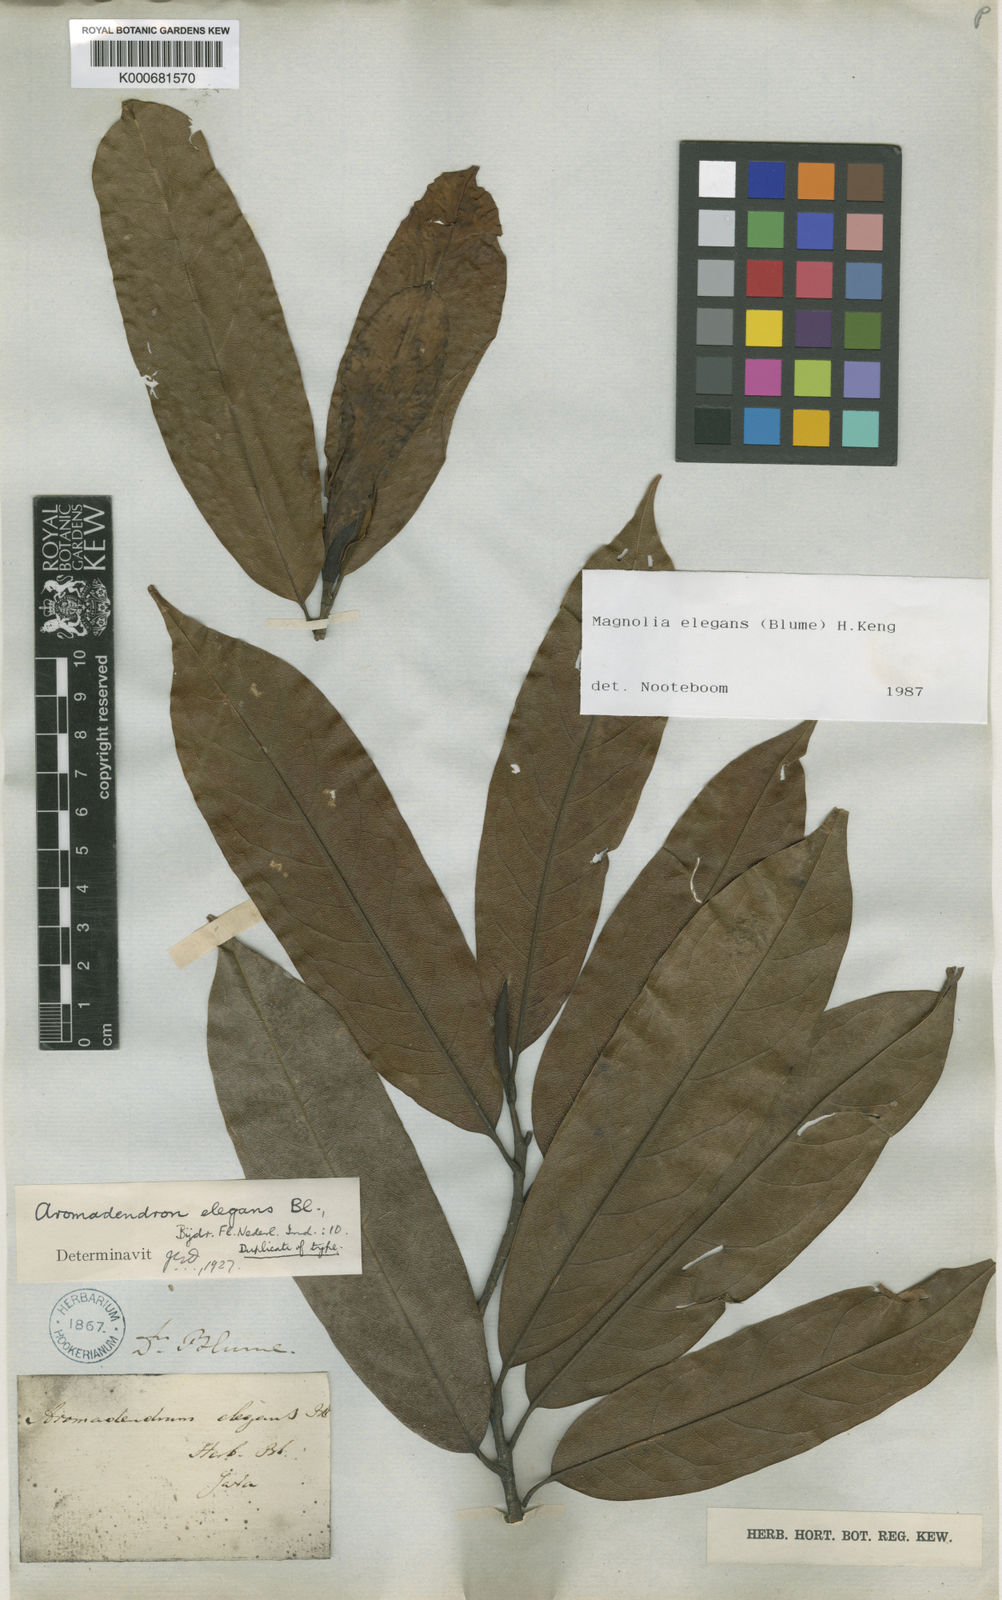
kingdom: Plantae
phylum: Tracheophyta
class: Magnoliopsida
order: Magnoliales
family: Magnoliaceae
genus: Magnolia
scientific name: Magnolia elegans
